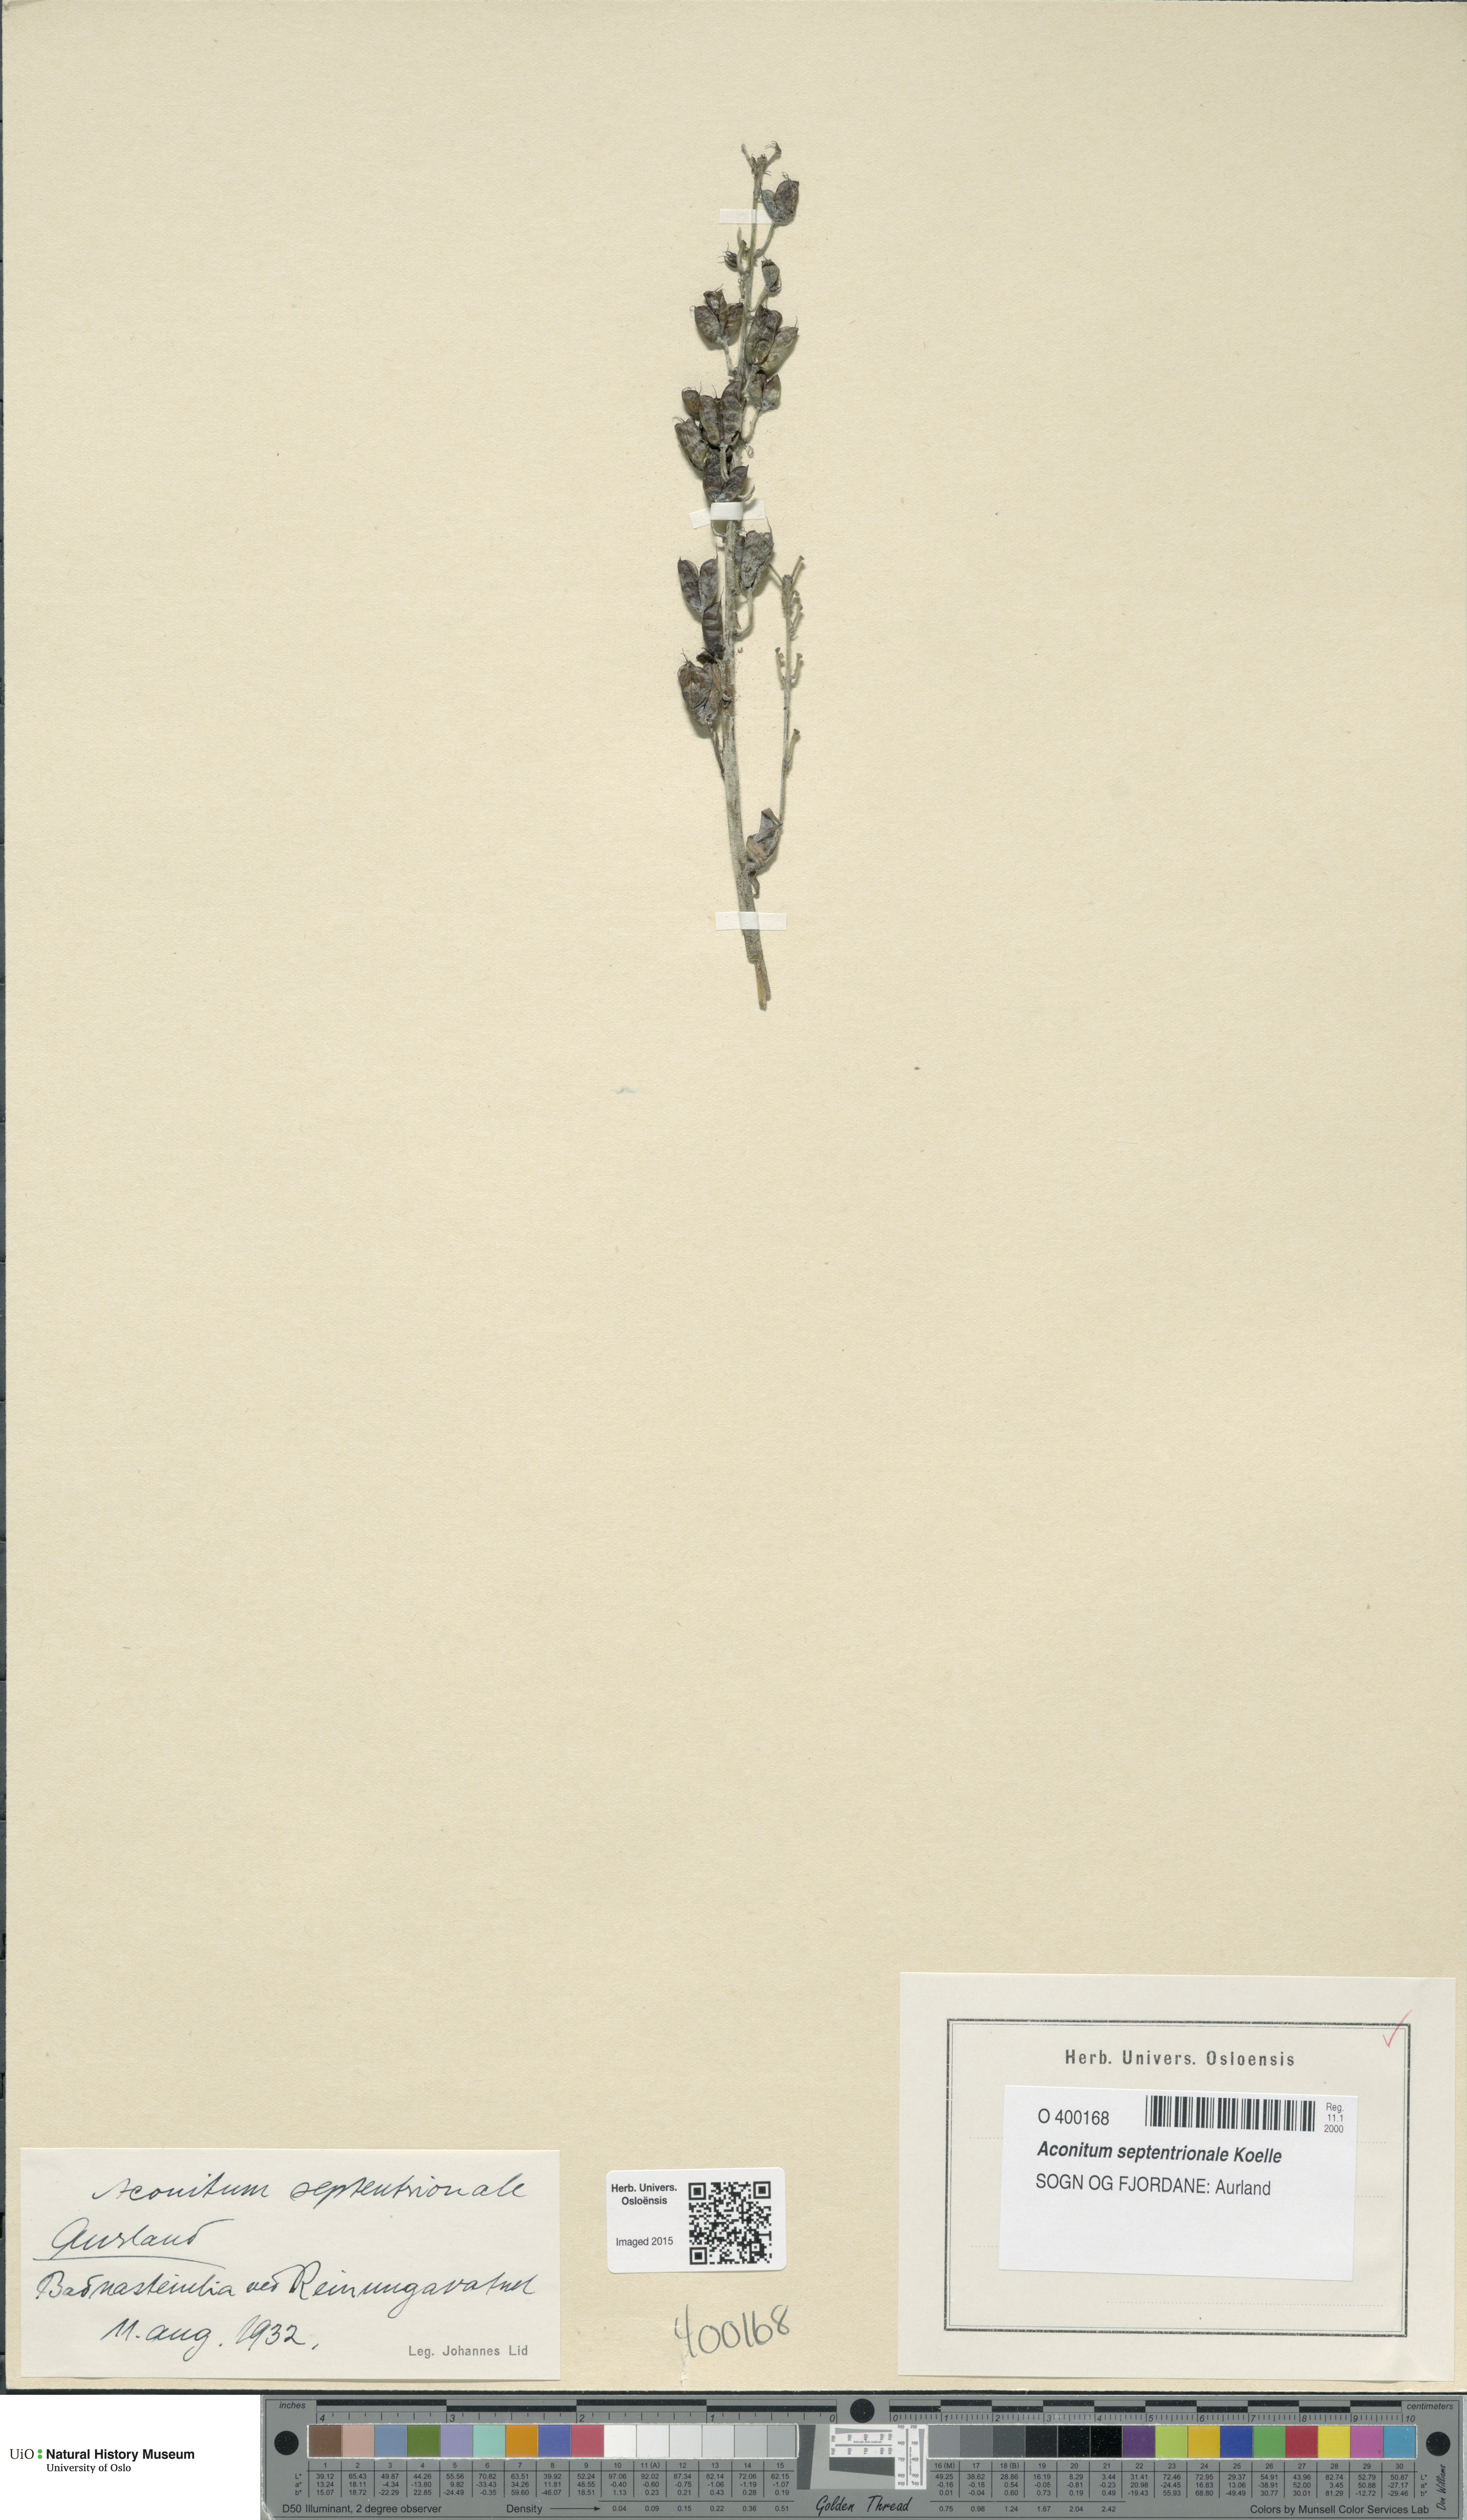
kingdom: Plantae
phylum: Tracheophyta
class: Magnoliopsida
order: Ranunculales
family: Ranunculaceae
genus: Aconitum
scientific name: Aconitum septentrionale
